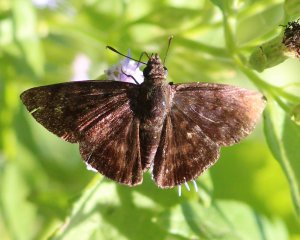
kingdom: Animalia
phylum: Arthropoda
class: Insecta
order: Lepidoptera
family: Hesperiidae
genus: Pellicia
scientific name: Pellicia costimacula
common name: Glazed Pellicia
